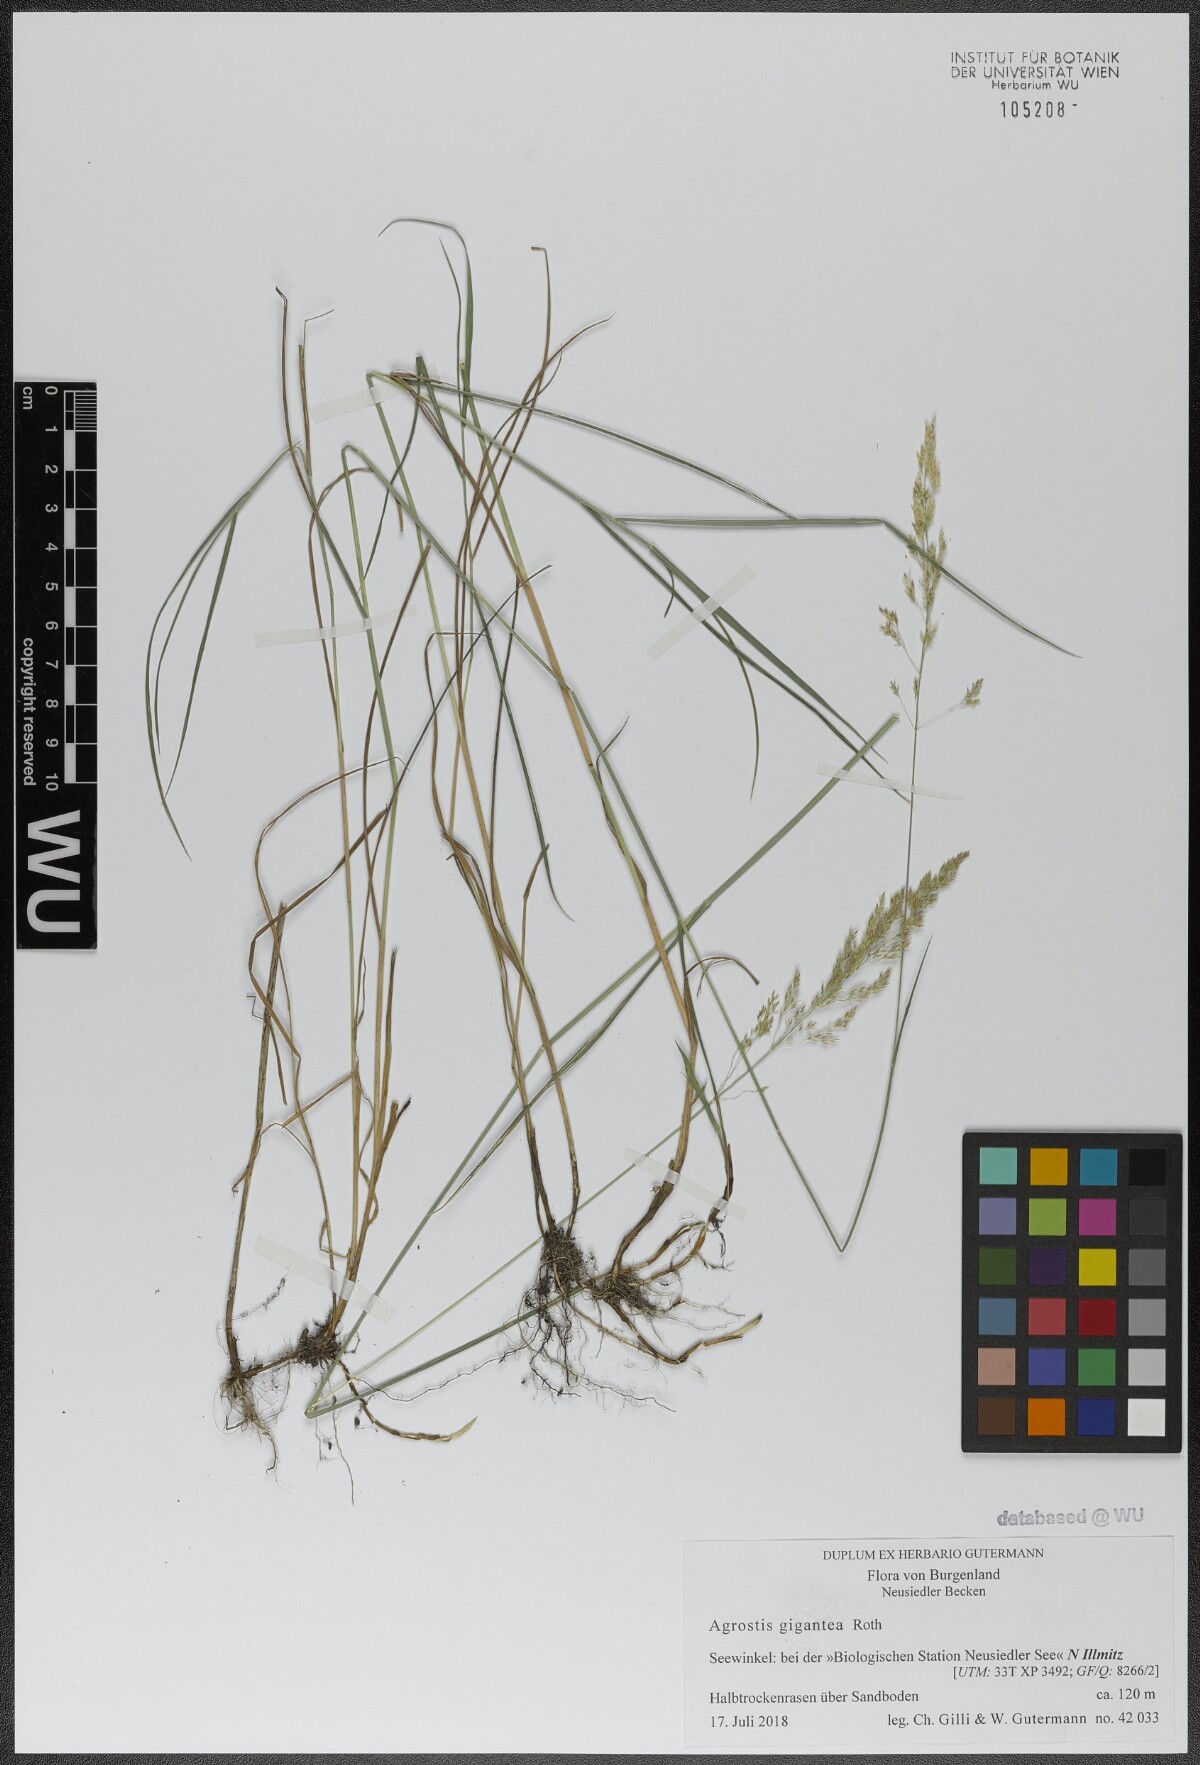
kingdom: Plantae
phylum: Tracheophyta
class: Liliopsida
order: Poales
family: Poaceae
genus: Agrostis
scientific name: Agrostis gigantea
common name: Black bent
